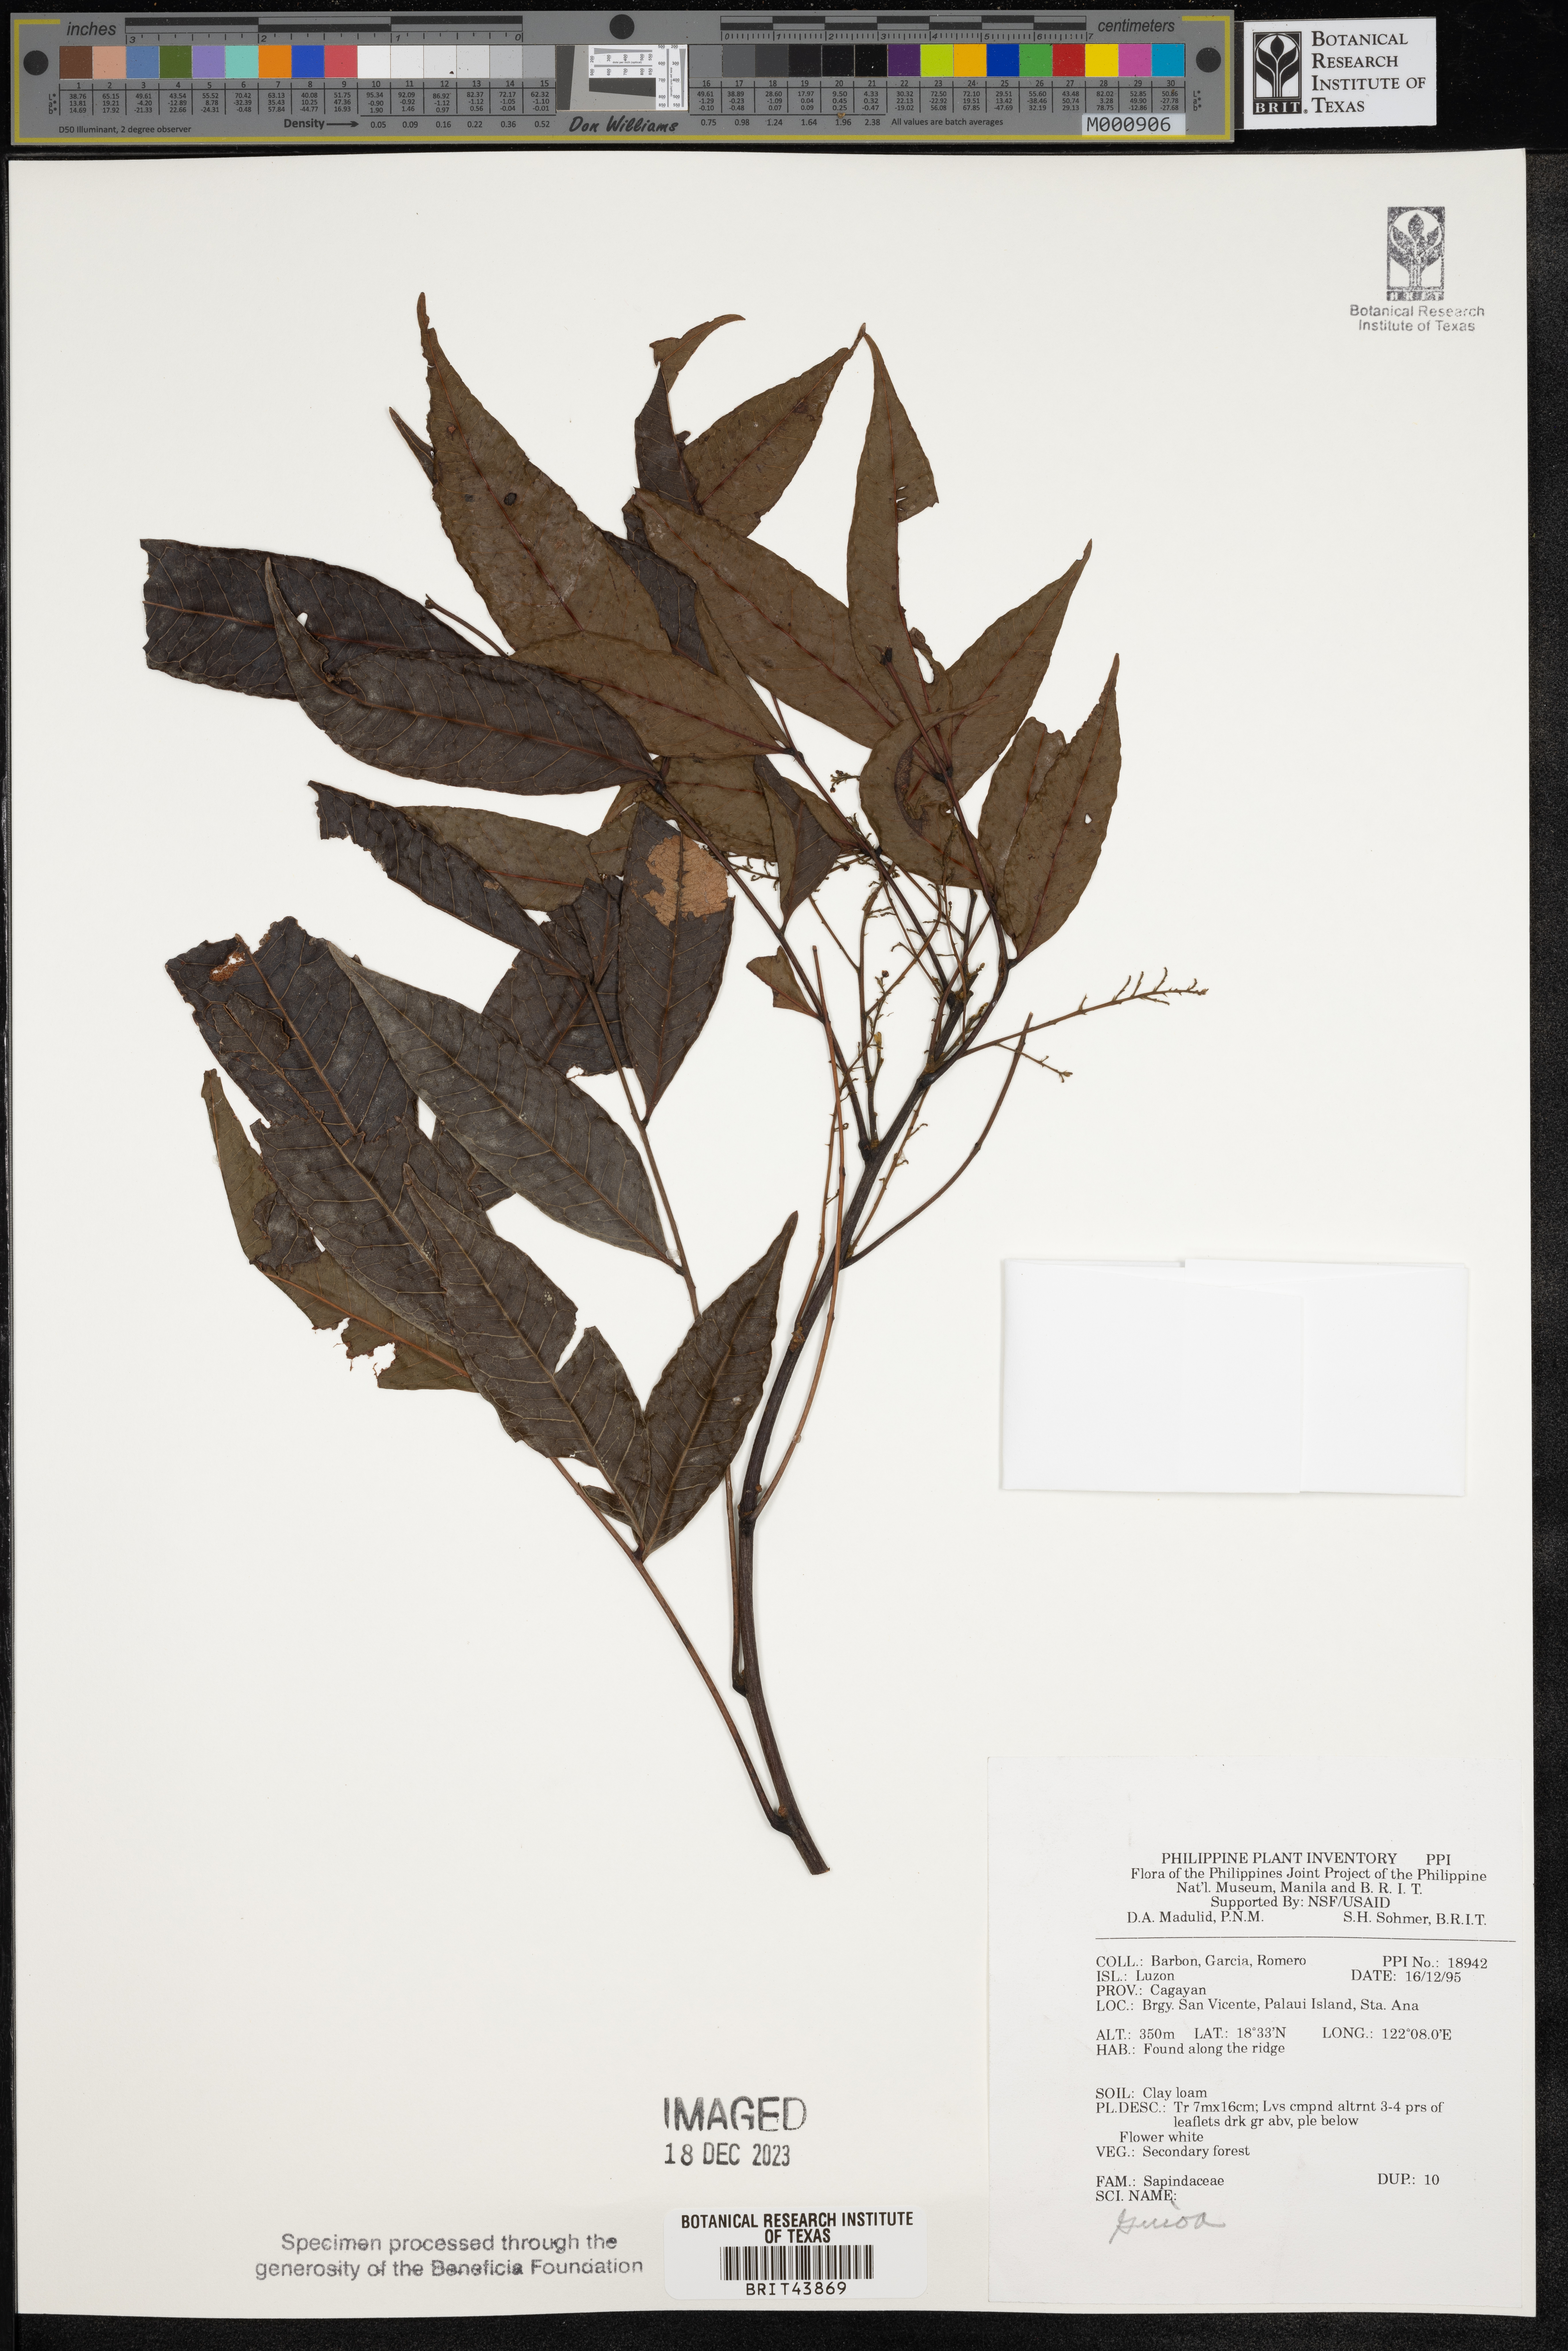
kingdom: Plantae
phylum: Tracheophyta
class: Magnoliopsida
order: Sapindales
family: Sapindaceae
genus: Guioa
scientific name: Guioa
